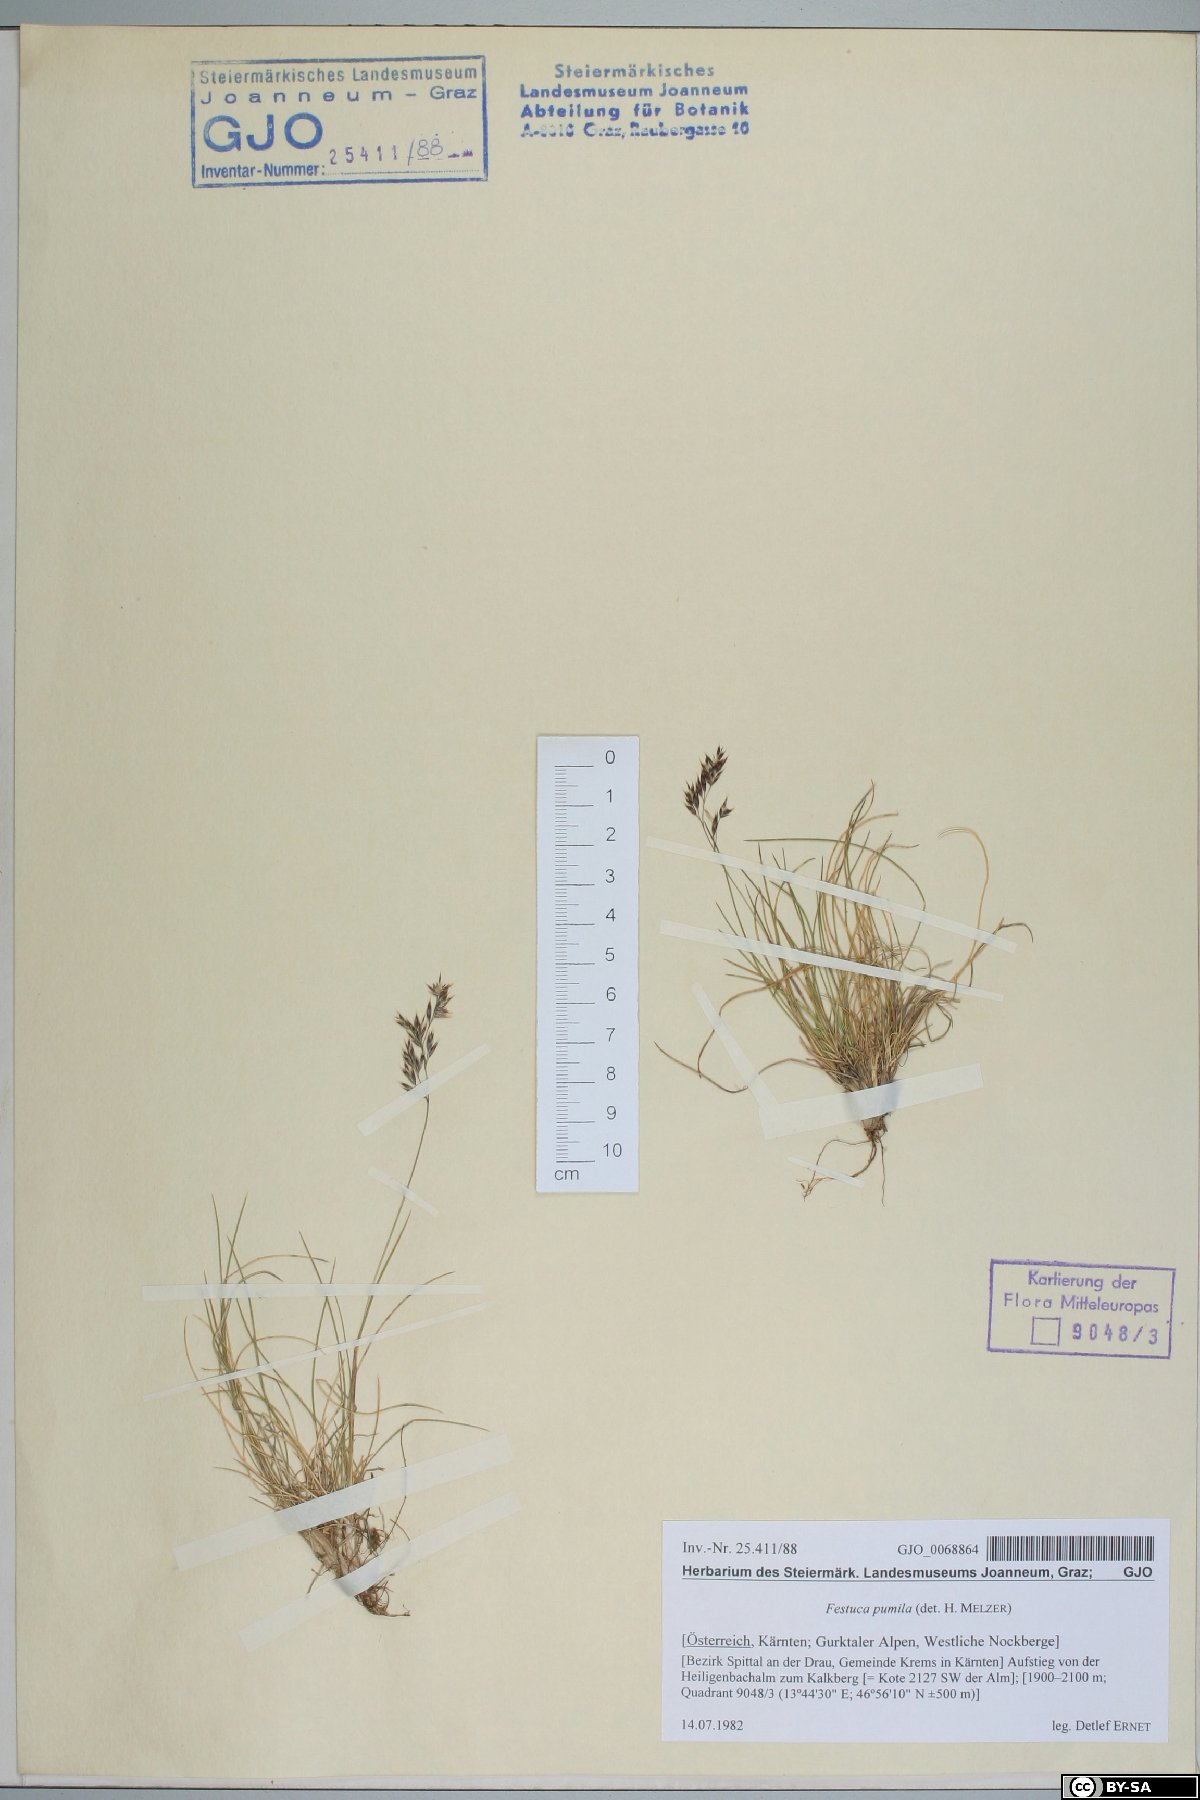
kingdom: Plantae
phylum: Tracheophyta
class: Liliopsida
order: Poales
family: Poaceae
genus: Festuca
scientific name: Festuca quadriflora
